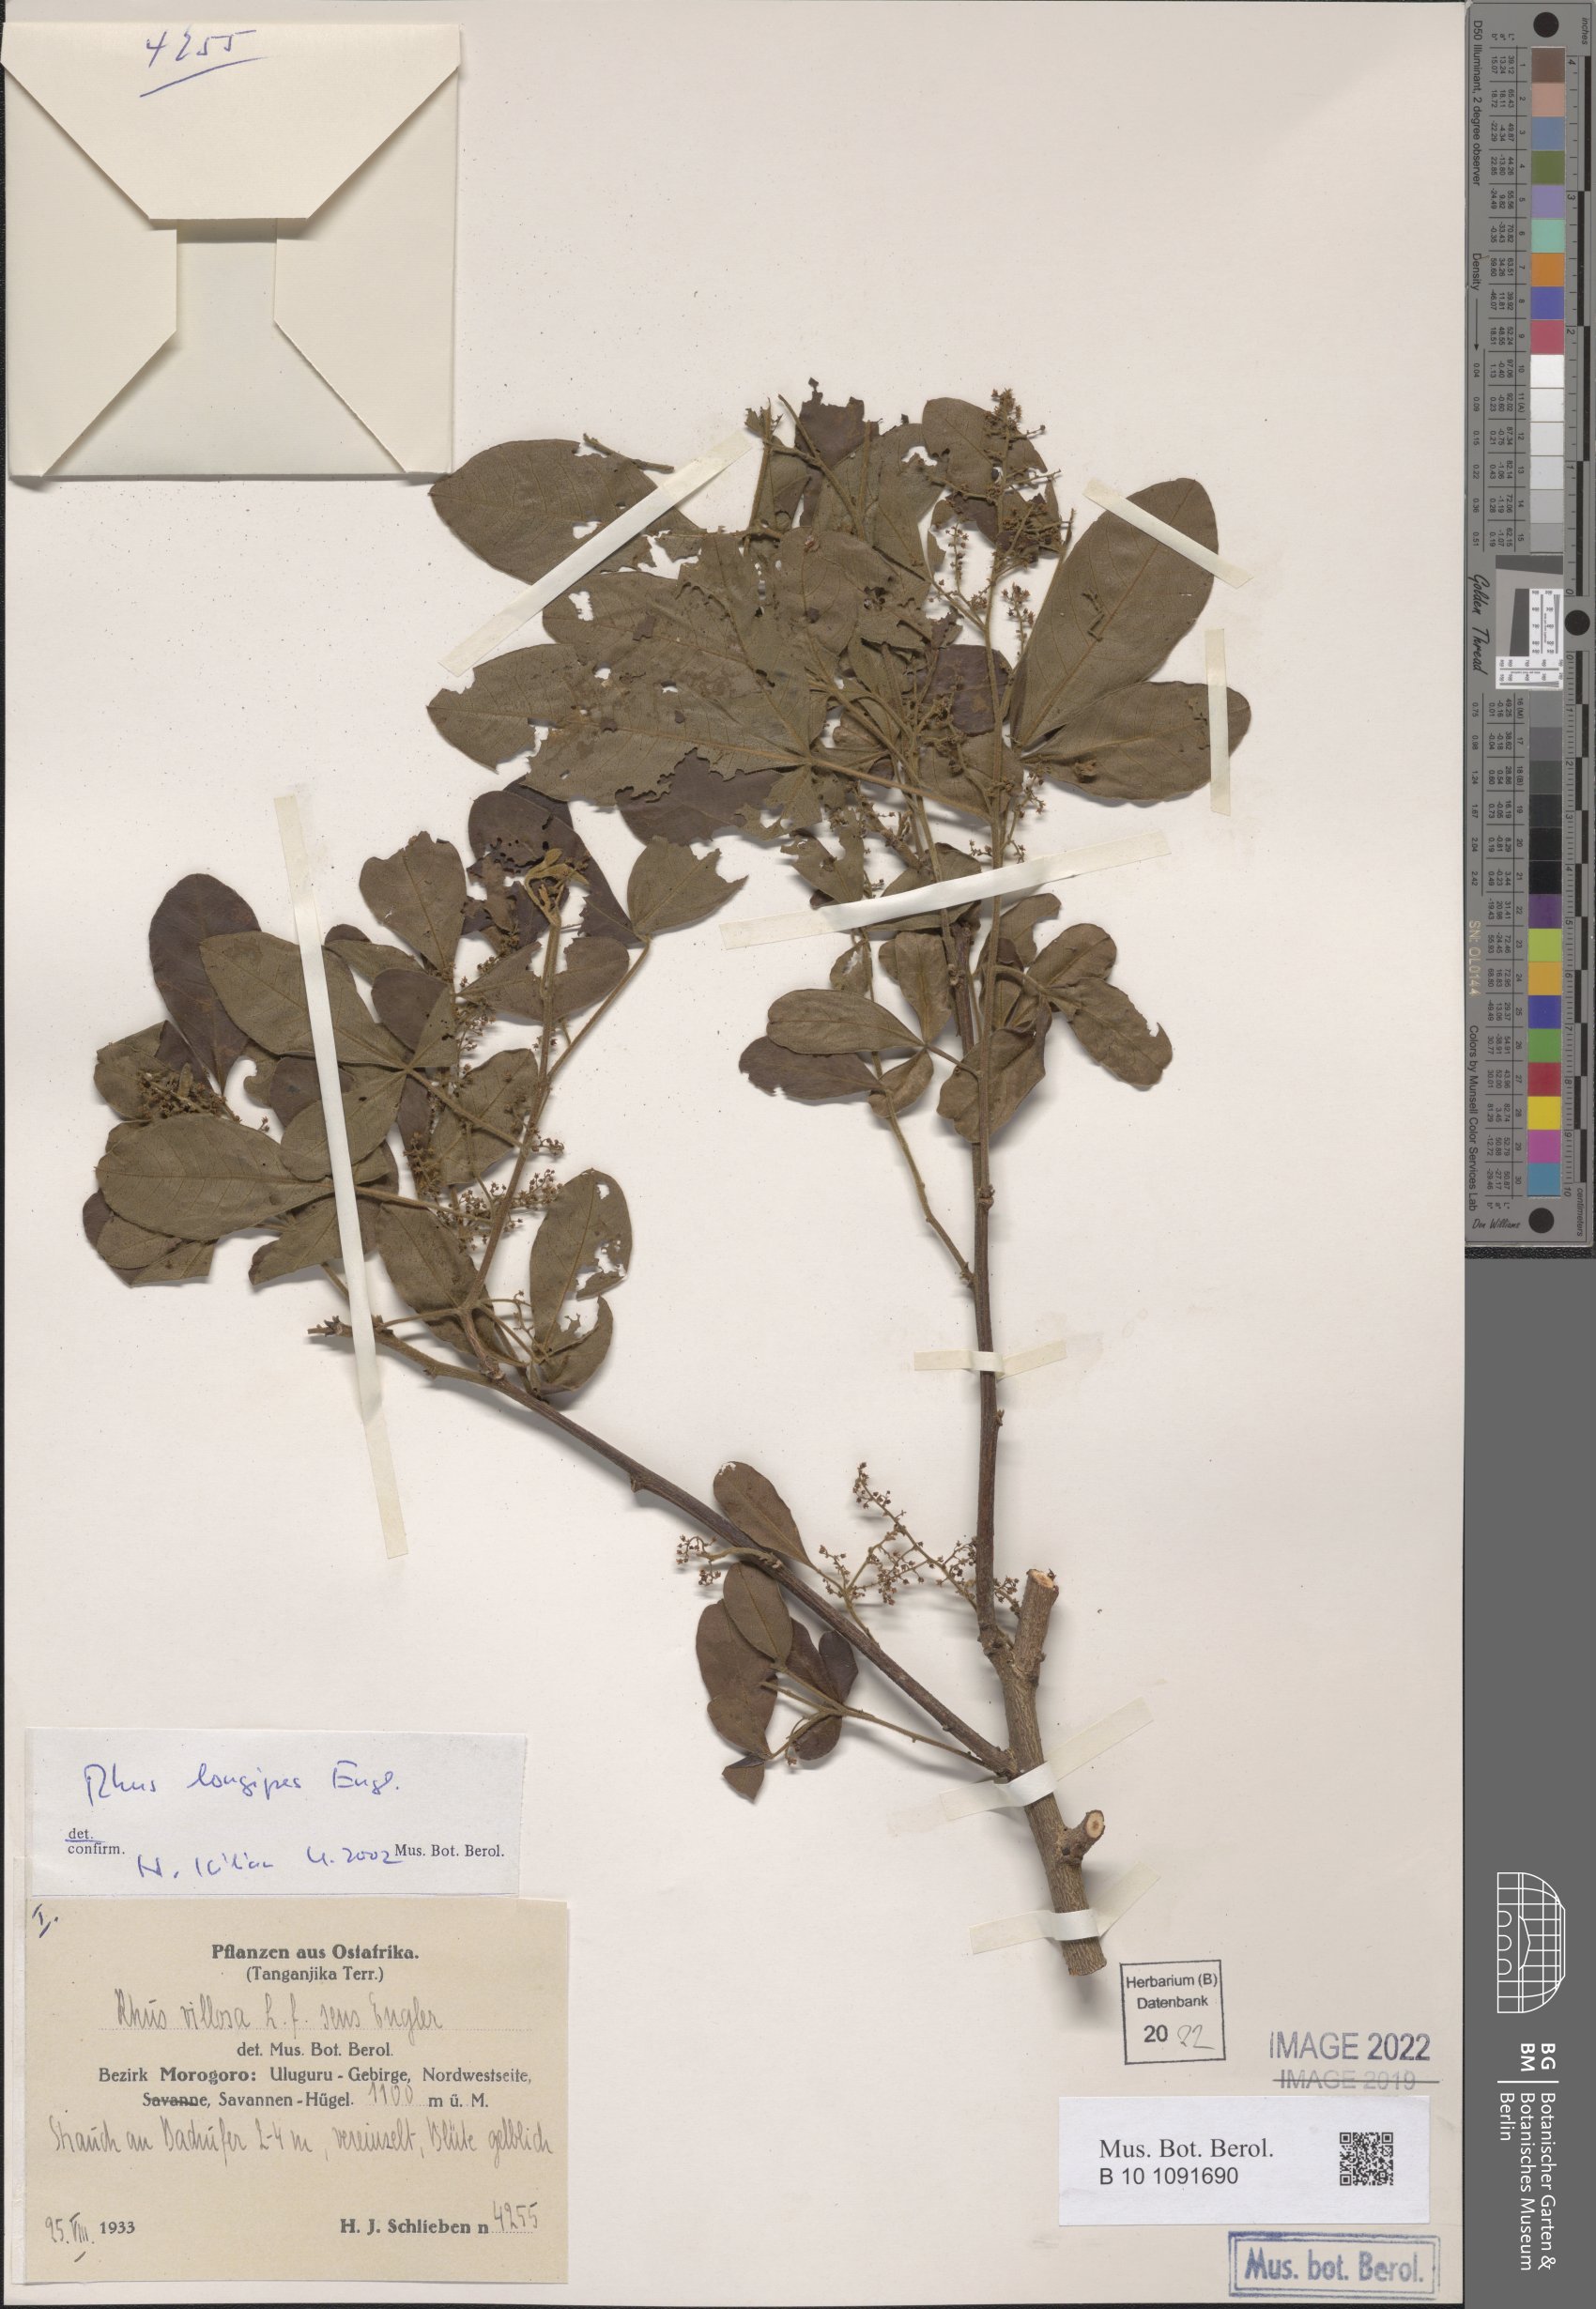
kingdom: Plantae
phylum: Tracheophyta
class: Magnoliopsida
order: Sapindales
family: Anacardiaceae
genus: Searsia
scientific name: Searsia longipes
